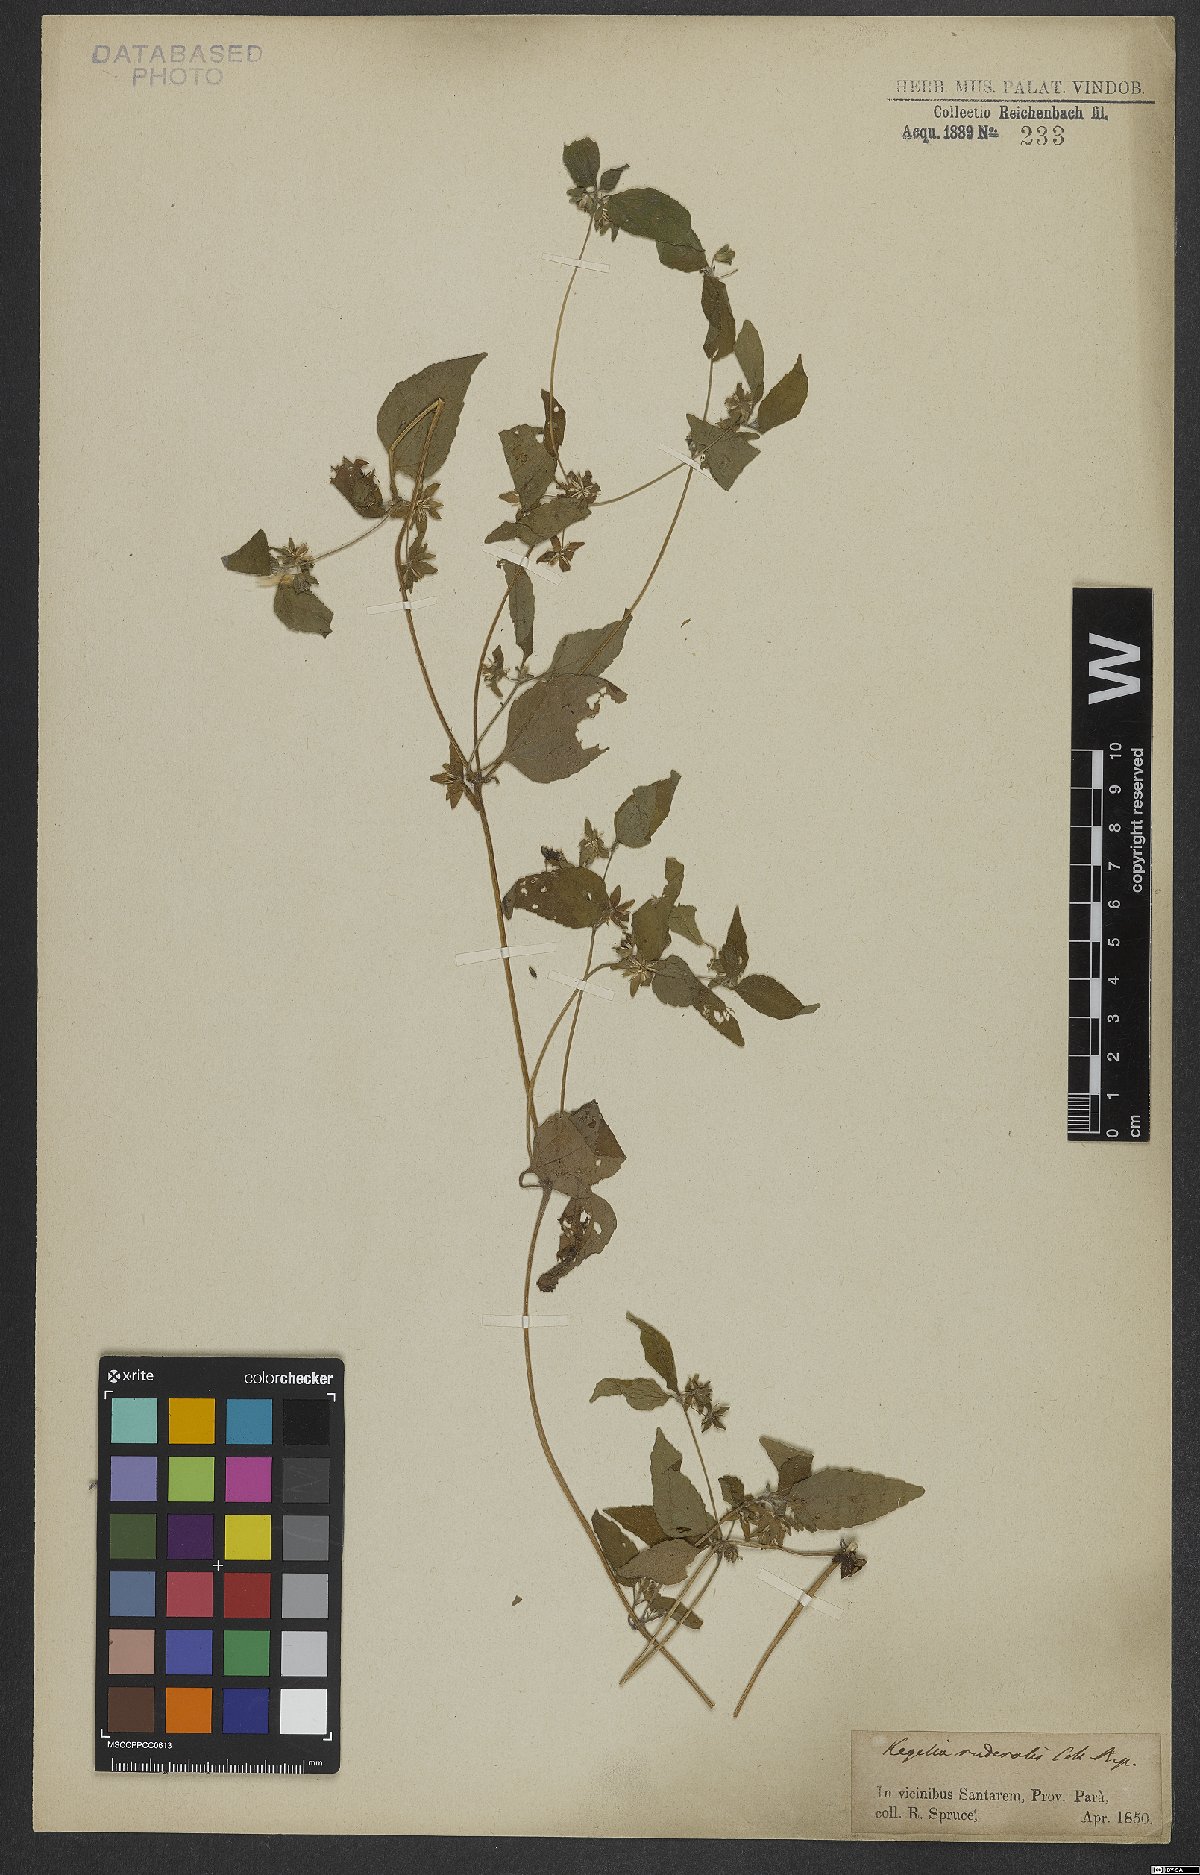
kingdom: Plantae
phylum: Tracheophyta
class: Magnoliopsida
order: Asterales
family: Asteraceae
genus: Eleutheranthera
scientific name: Eleutheranthera ruderalis
